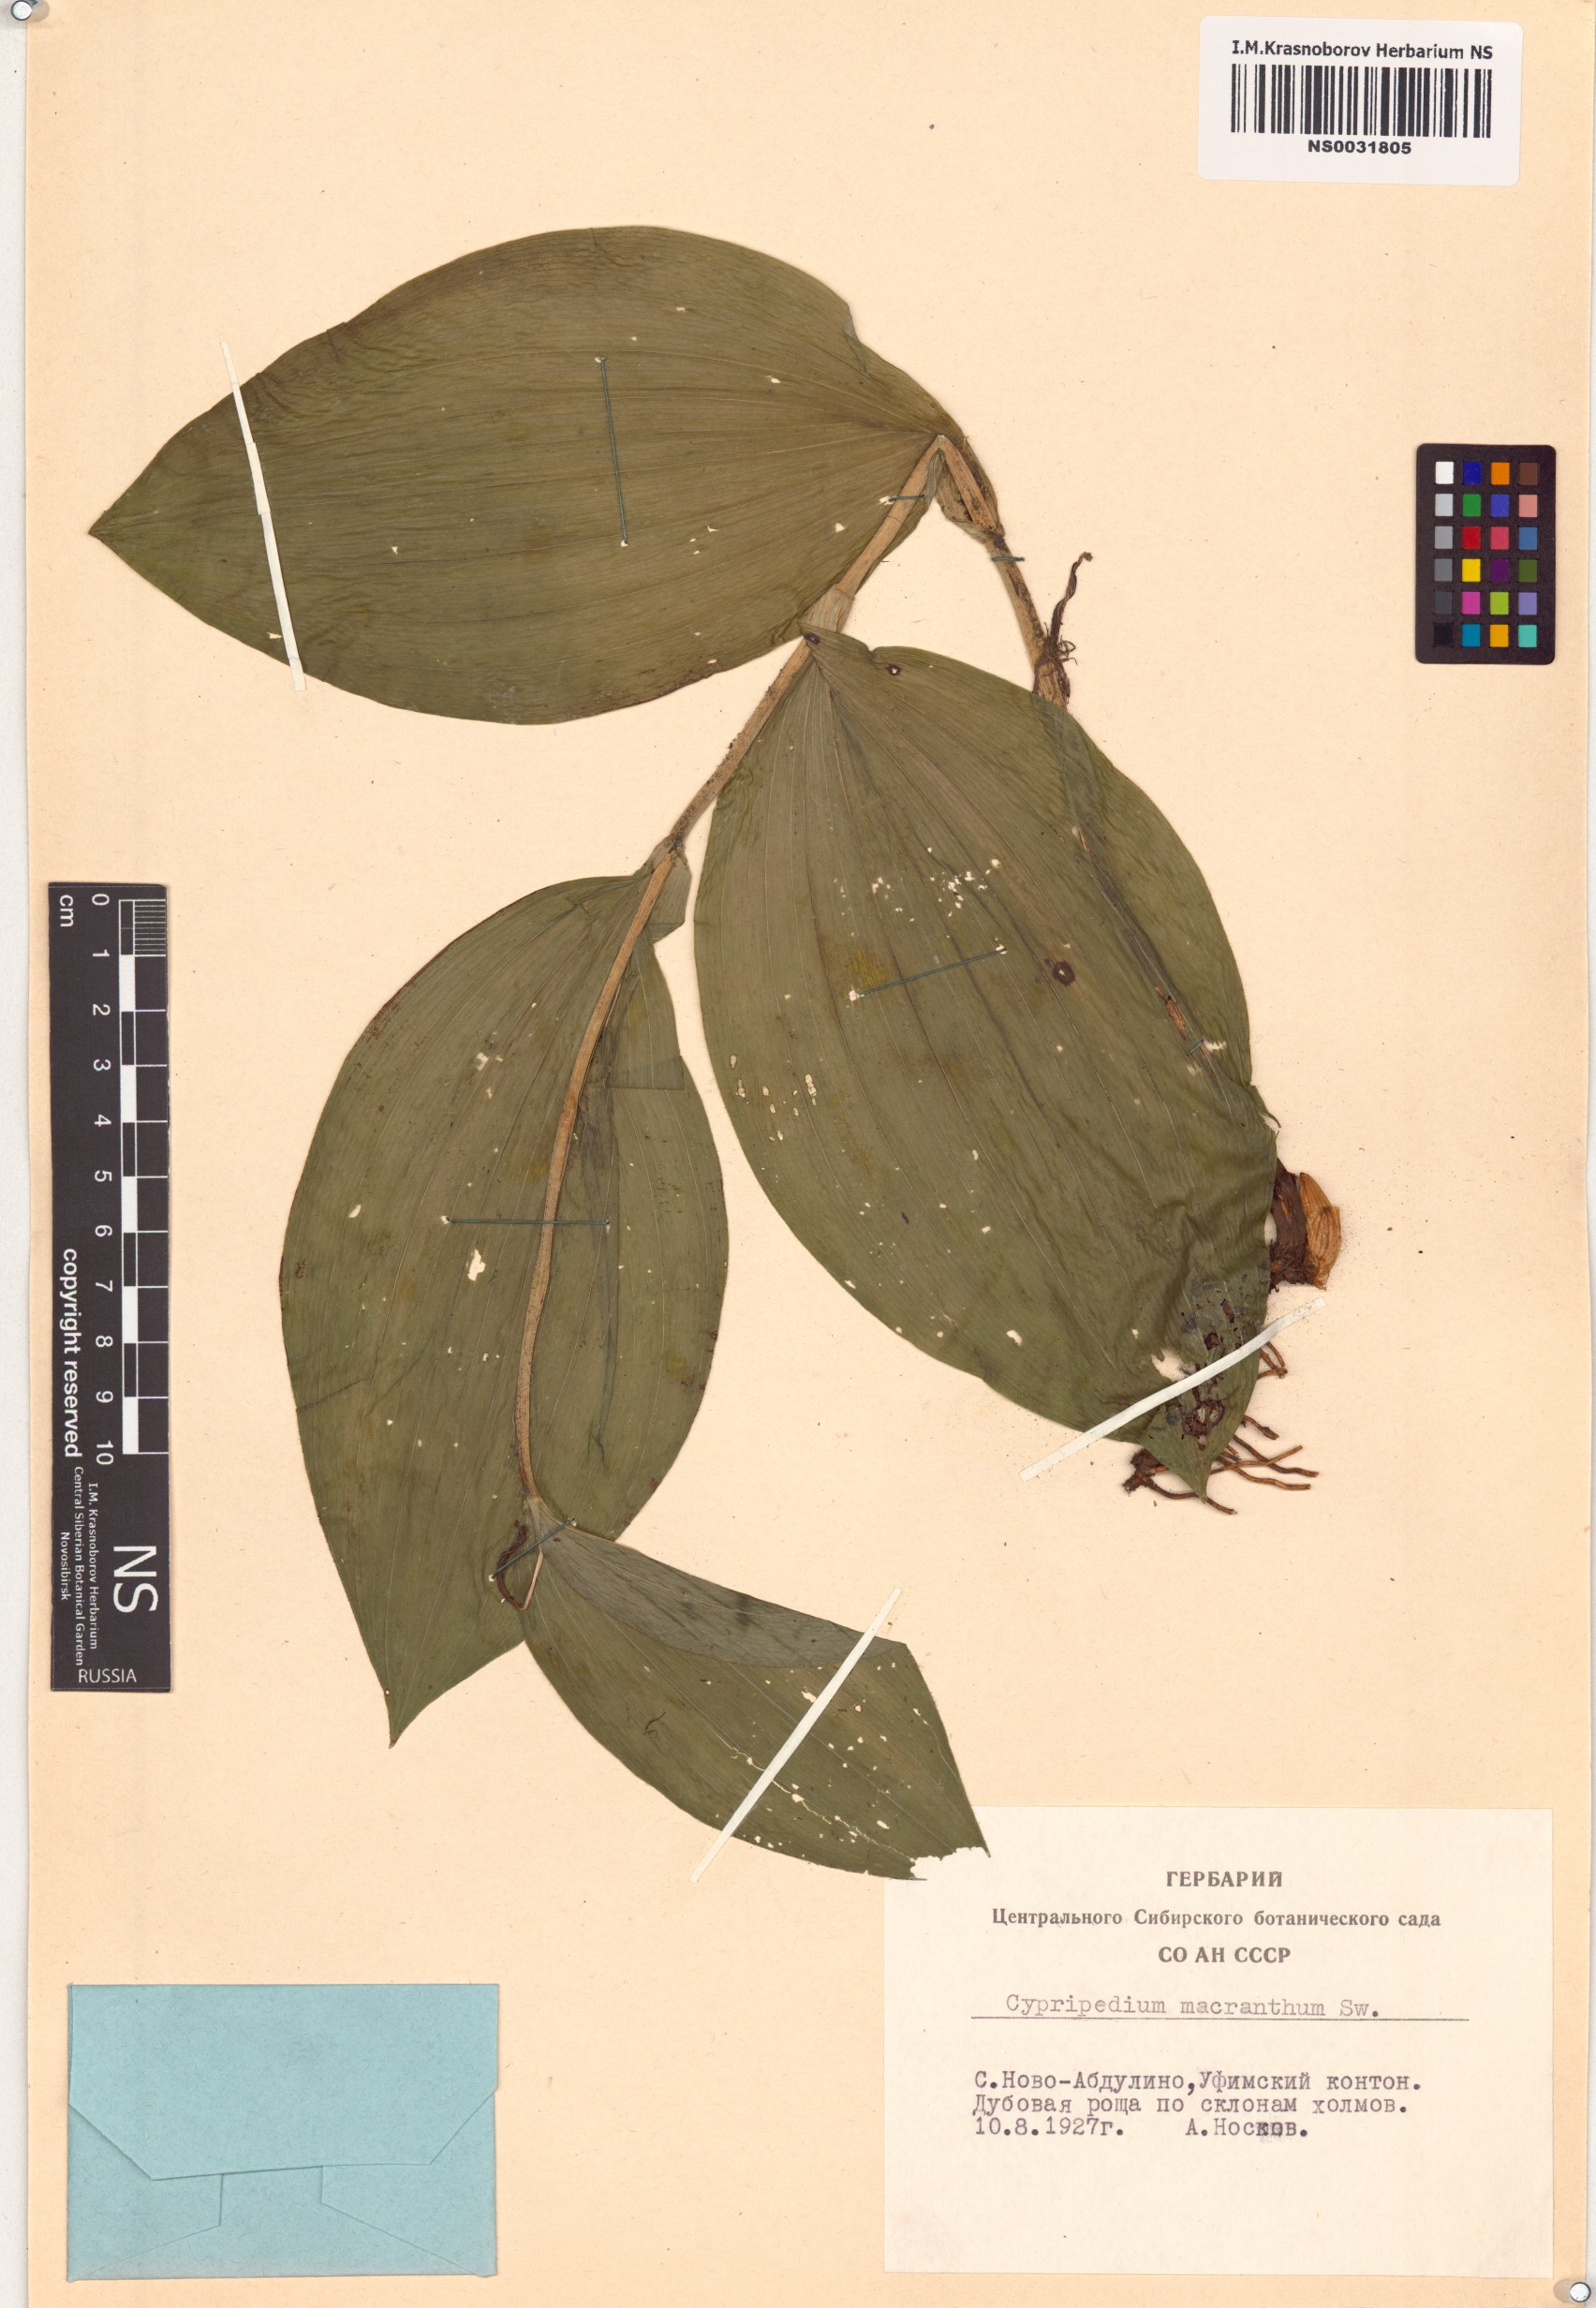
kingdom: Plantae
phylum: Tracheophyta
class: Liliopsida
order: Asparagales
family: Orchidaceae
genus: Cypripedium
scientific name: Cypripedium macranthon
